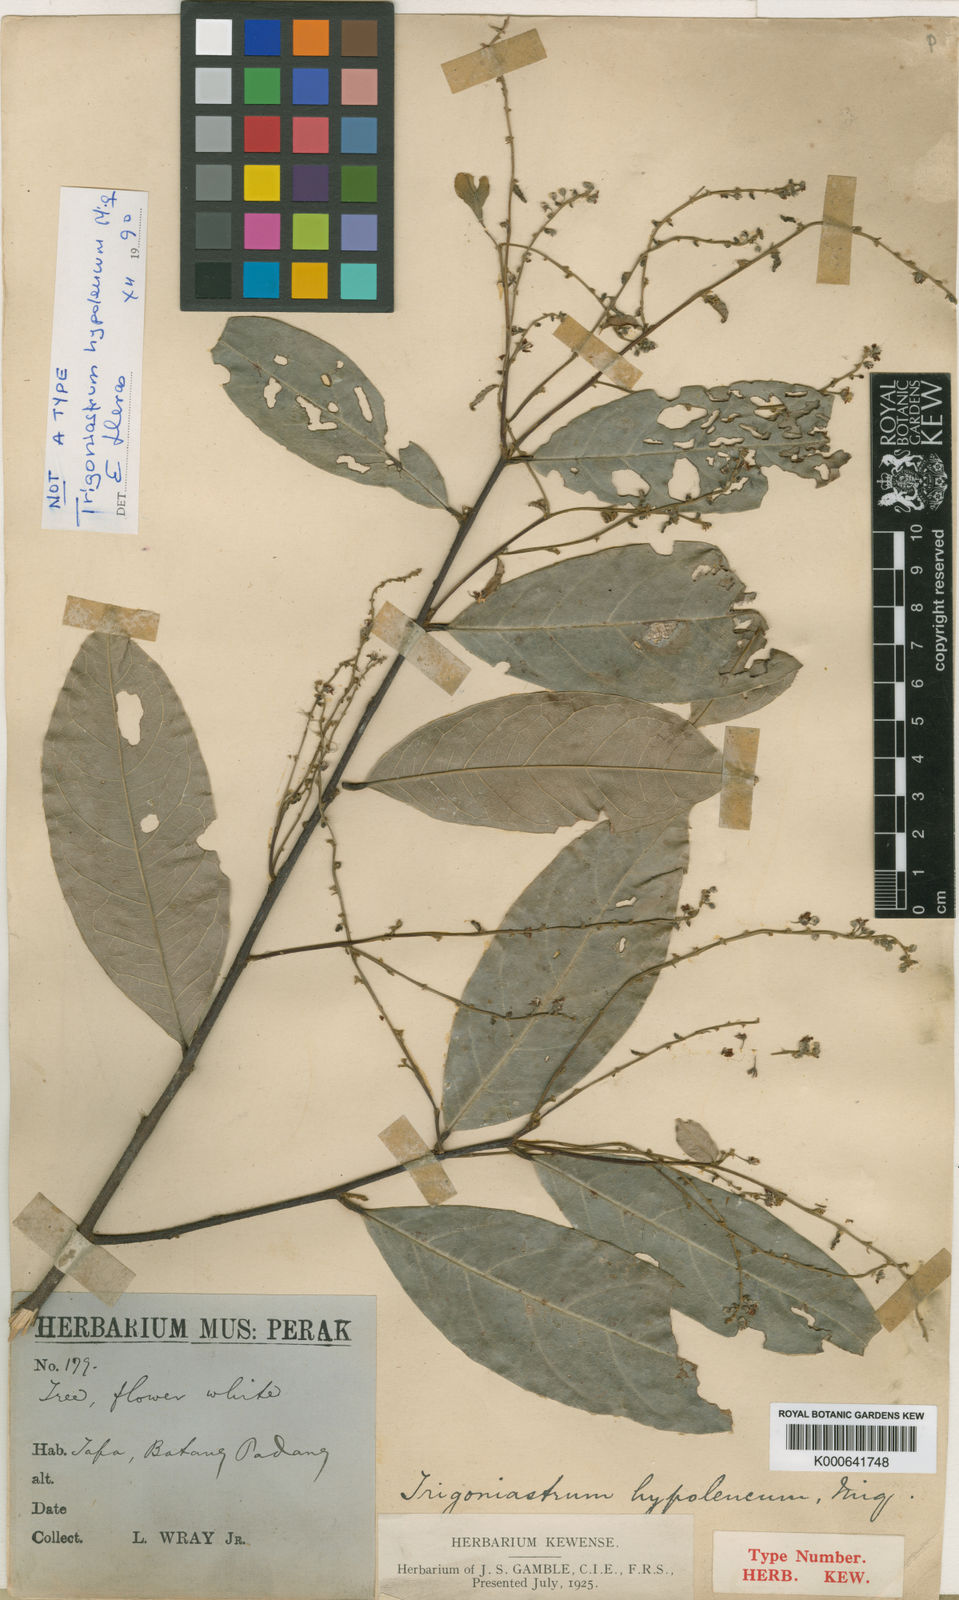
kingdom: Plantae
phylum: Tracheophyta
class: Magnoliopsida
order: Malpighiales
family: Trigoniaceae
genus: Trigoniastrum
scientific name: Trigoniastrum hypoleucum
